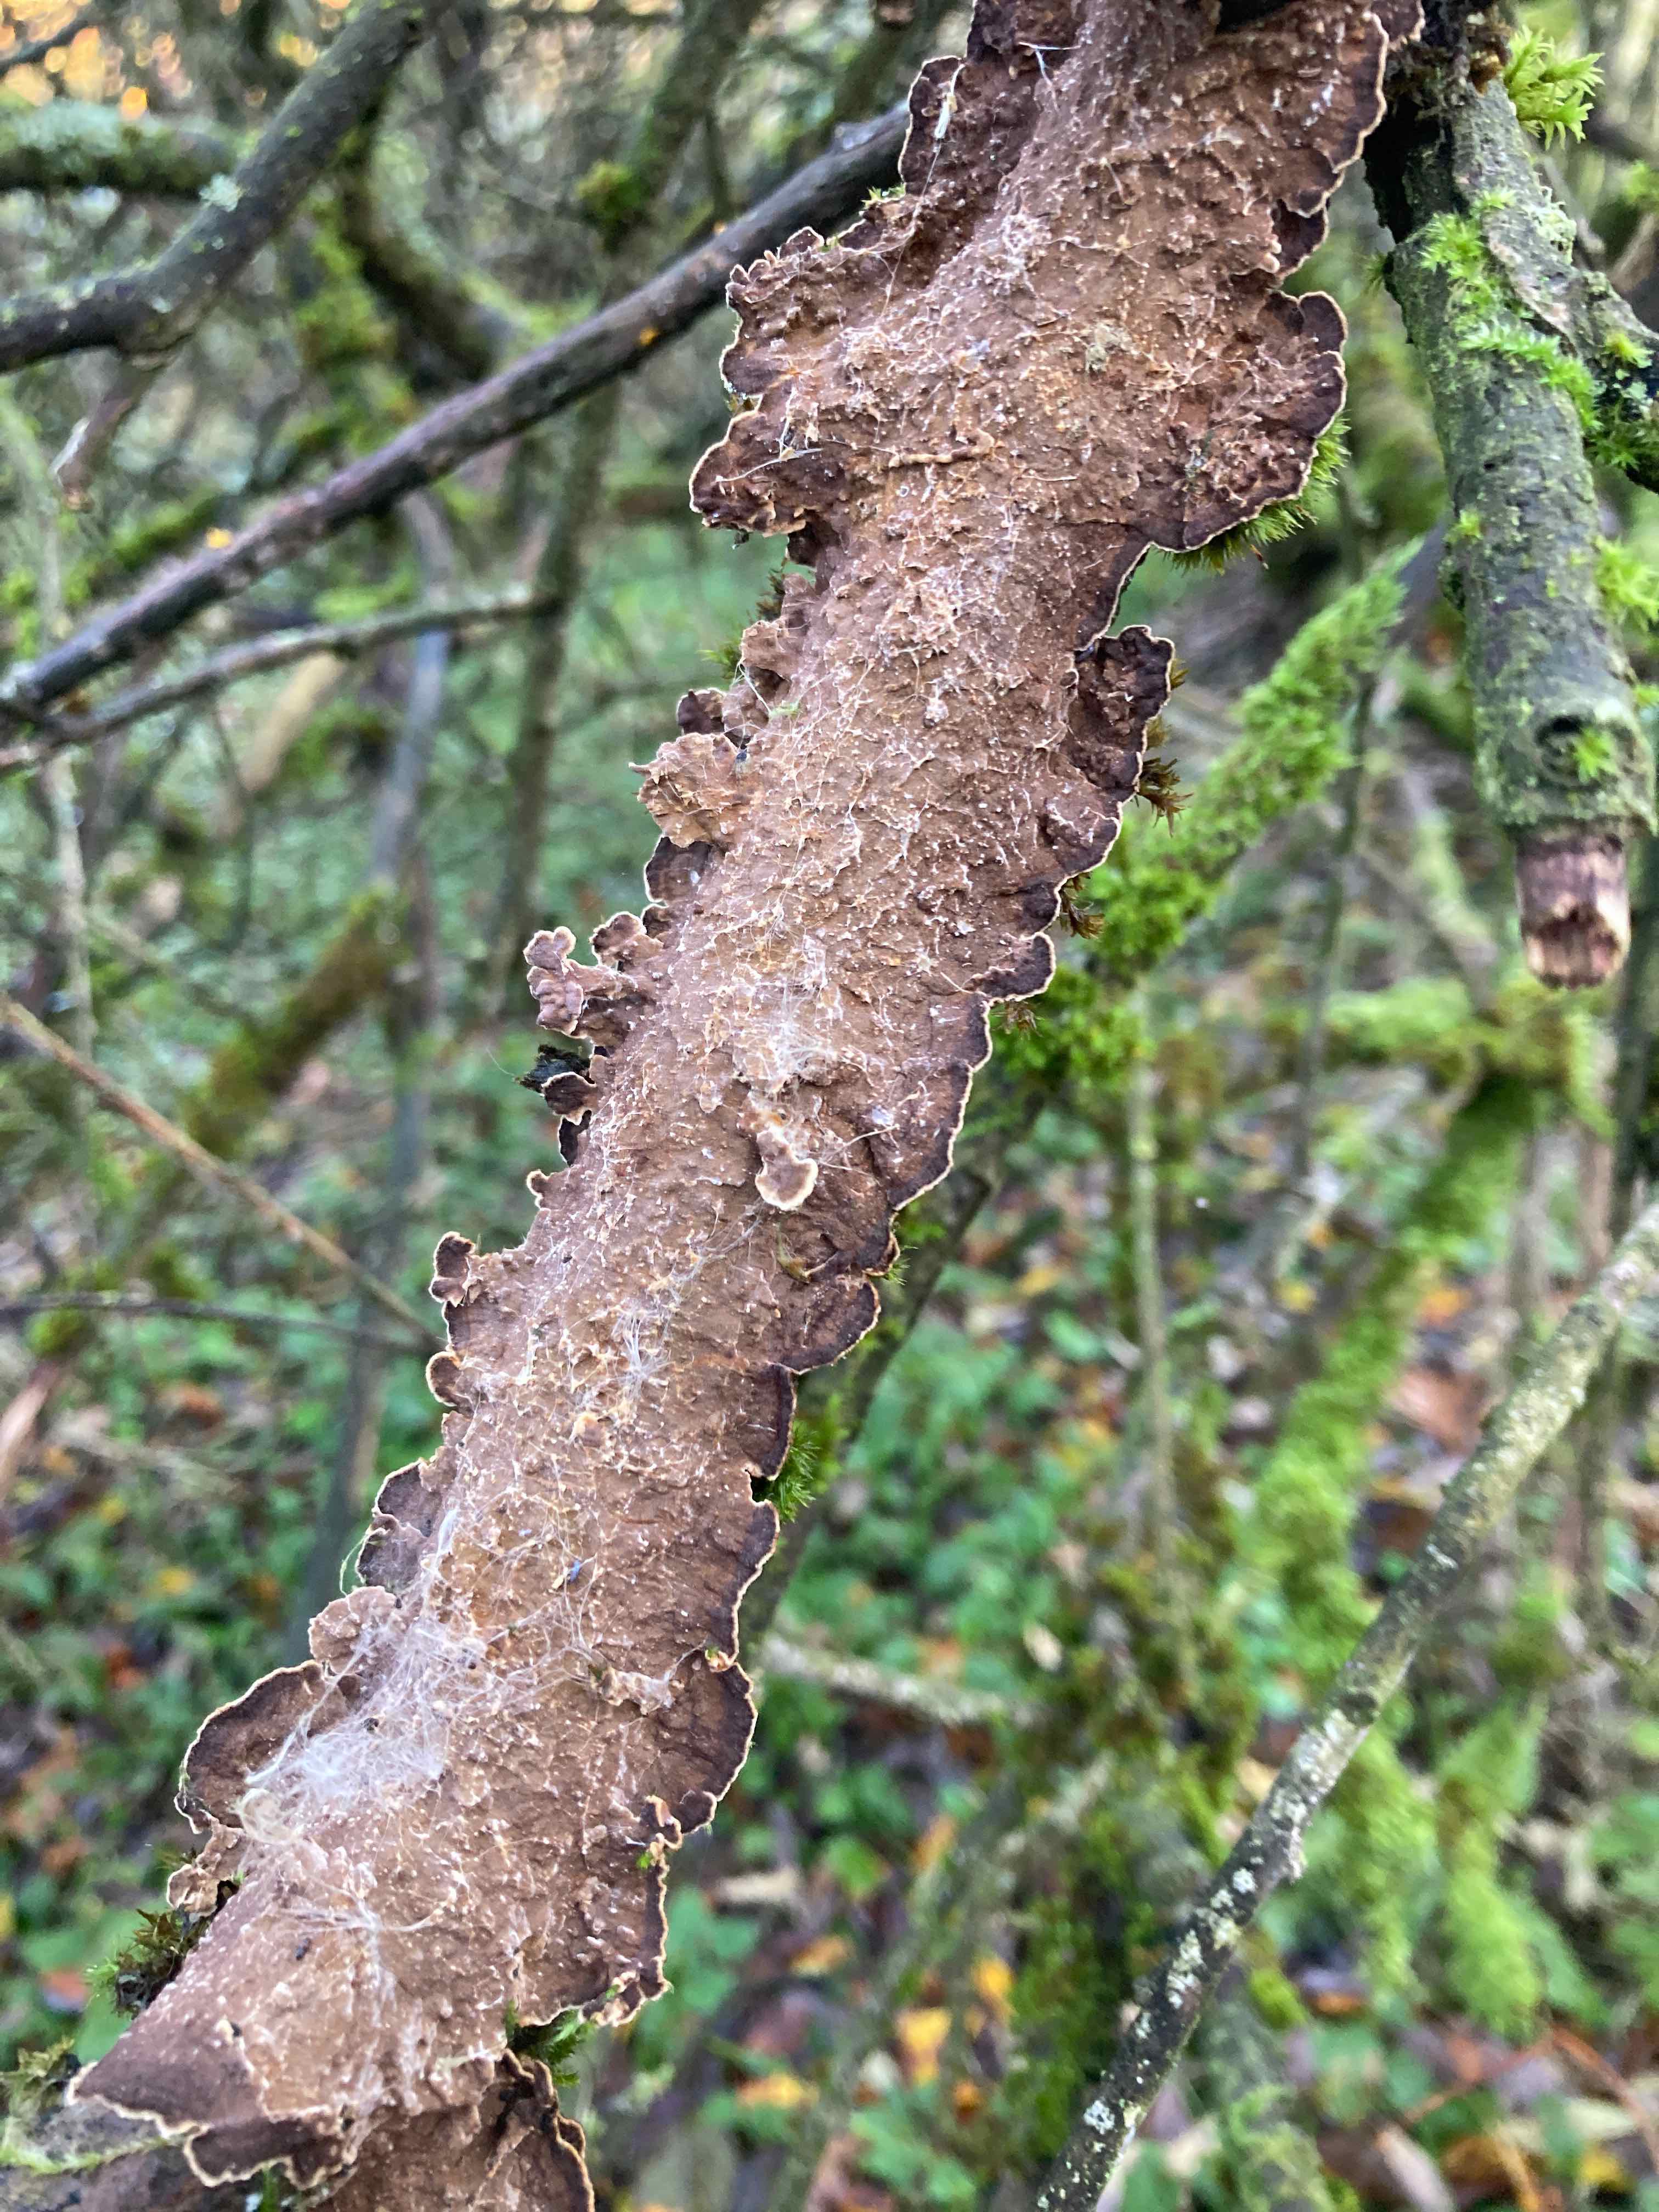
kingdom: Fungi
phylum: Basidiomycota
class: Agaricomycetes
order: Hymenochaetales
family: Hymenochaetaceae
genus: Hydnoporia
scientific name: Hydnoporia tabacina
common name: tobaksbrun ruslædersvamp
